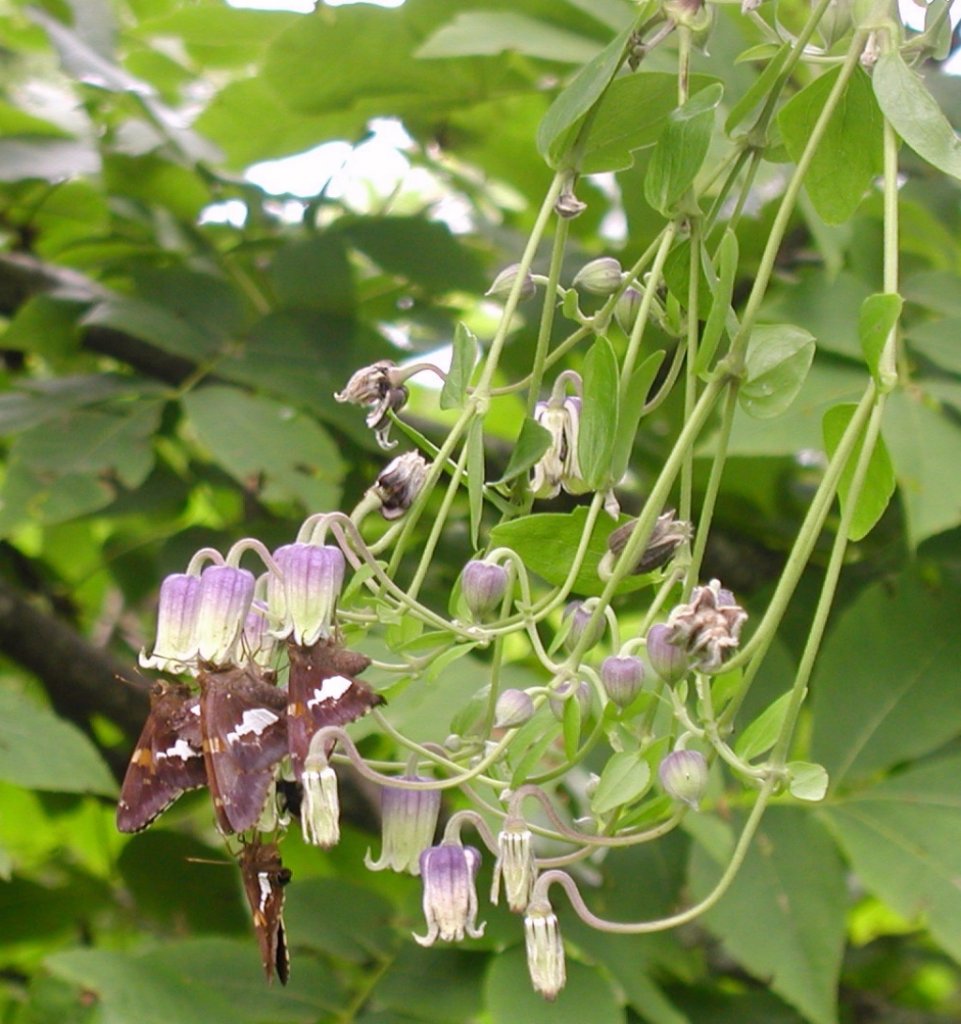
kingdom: Animalia
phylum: Arthropoda
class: Insecta
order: Lepidoptera
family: Hesperiidae
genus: Epargyreus
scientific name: Epargyreus clarus
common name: Silver-spotted Skipper
